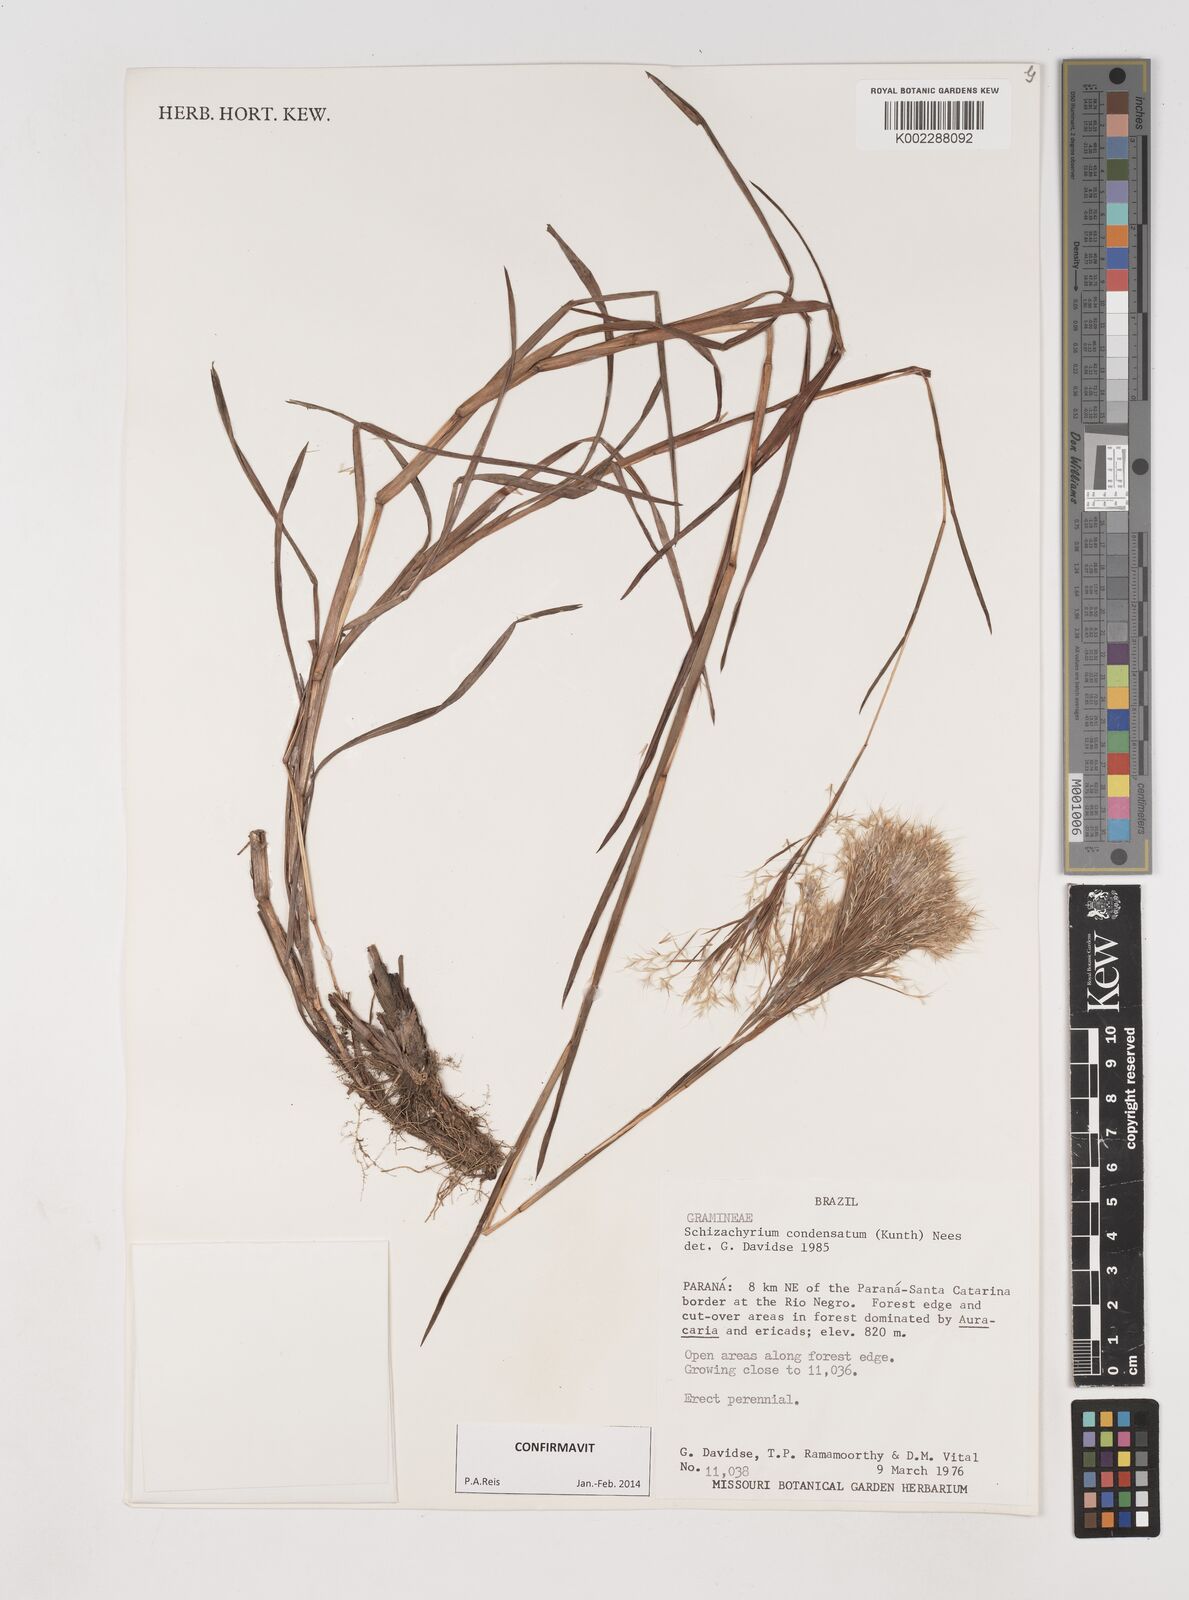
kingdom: Plantae
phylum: Tracheophyta
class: Liliopsida
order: Poales
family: Poaceae
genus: Schizachyrium
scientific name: Schizachyrium condensatum
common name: Bush beardgrass
